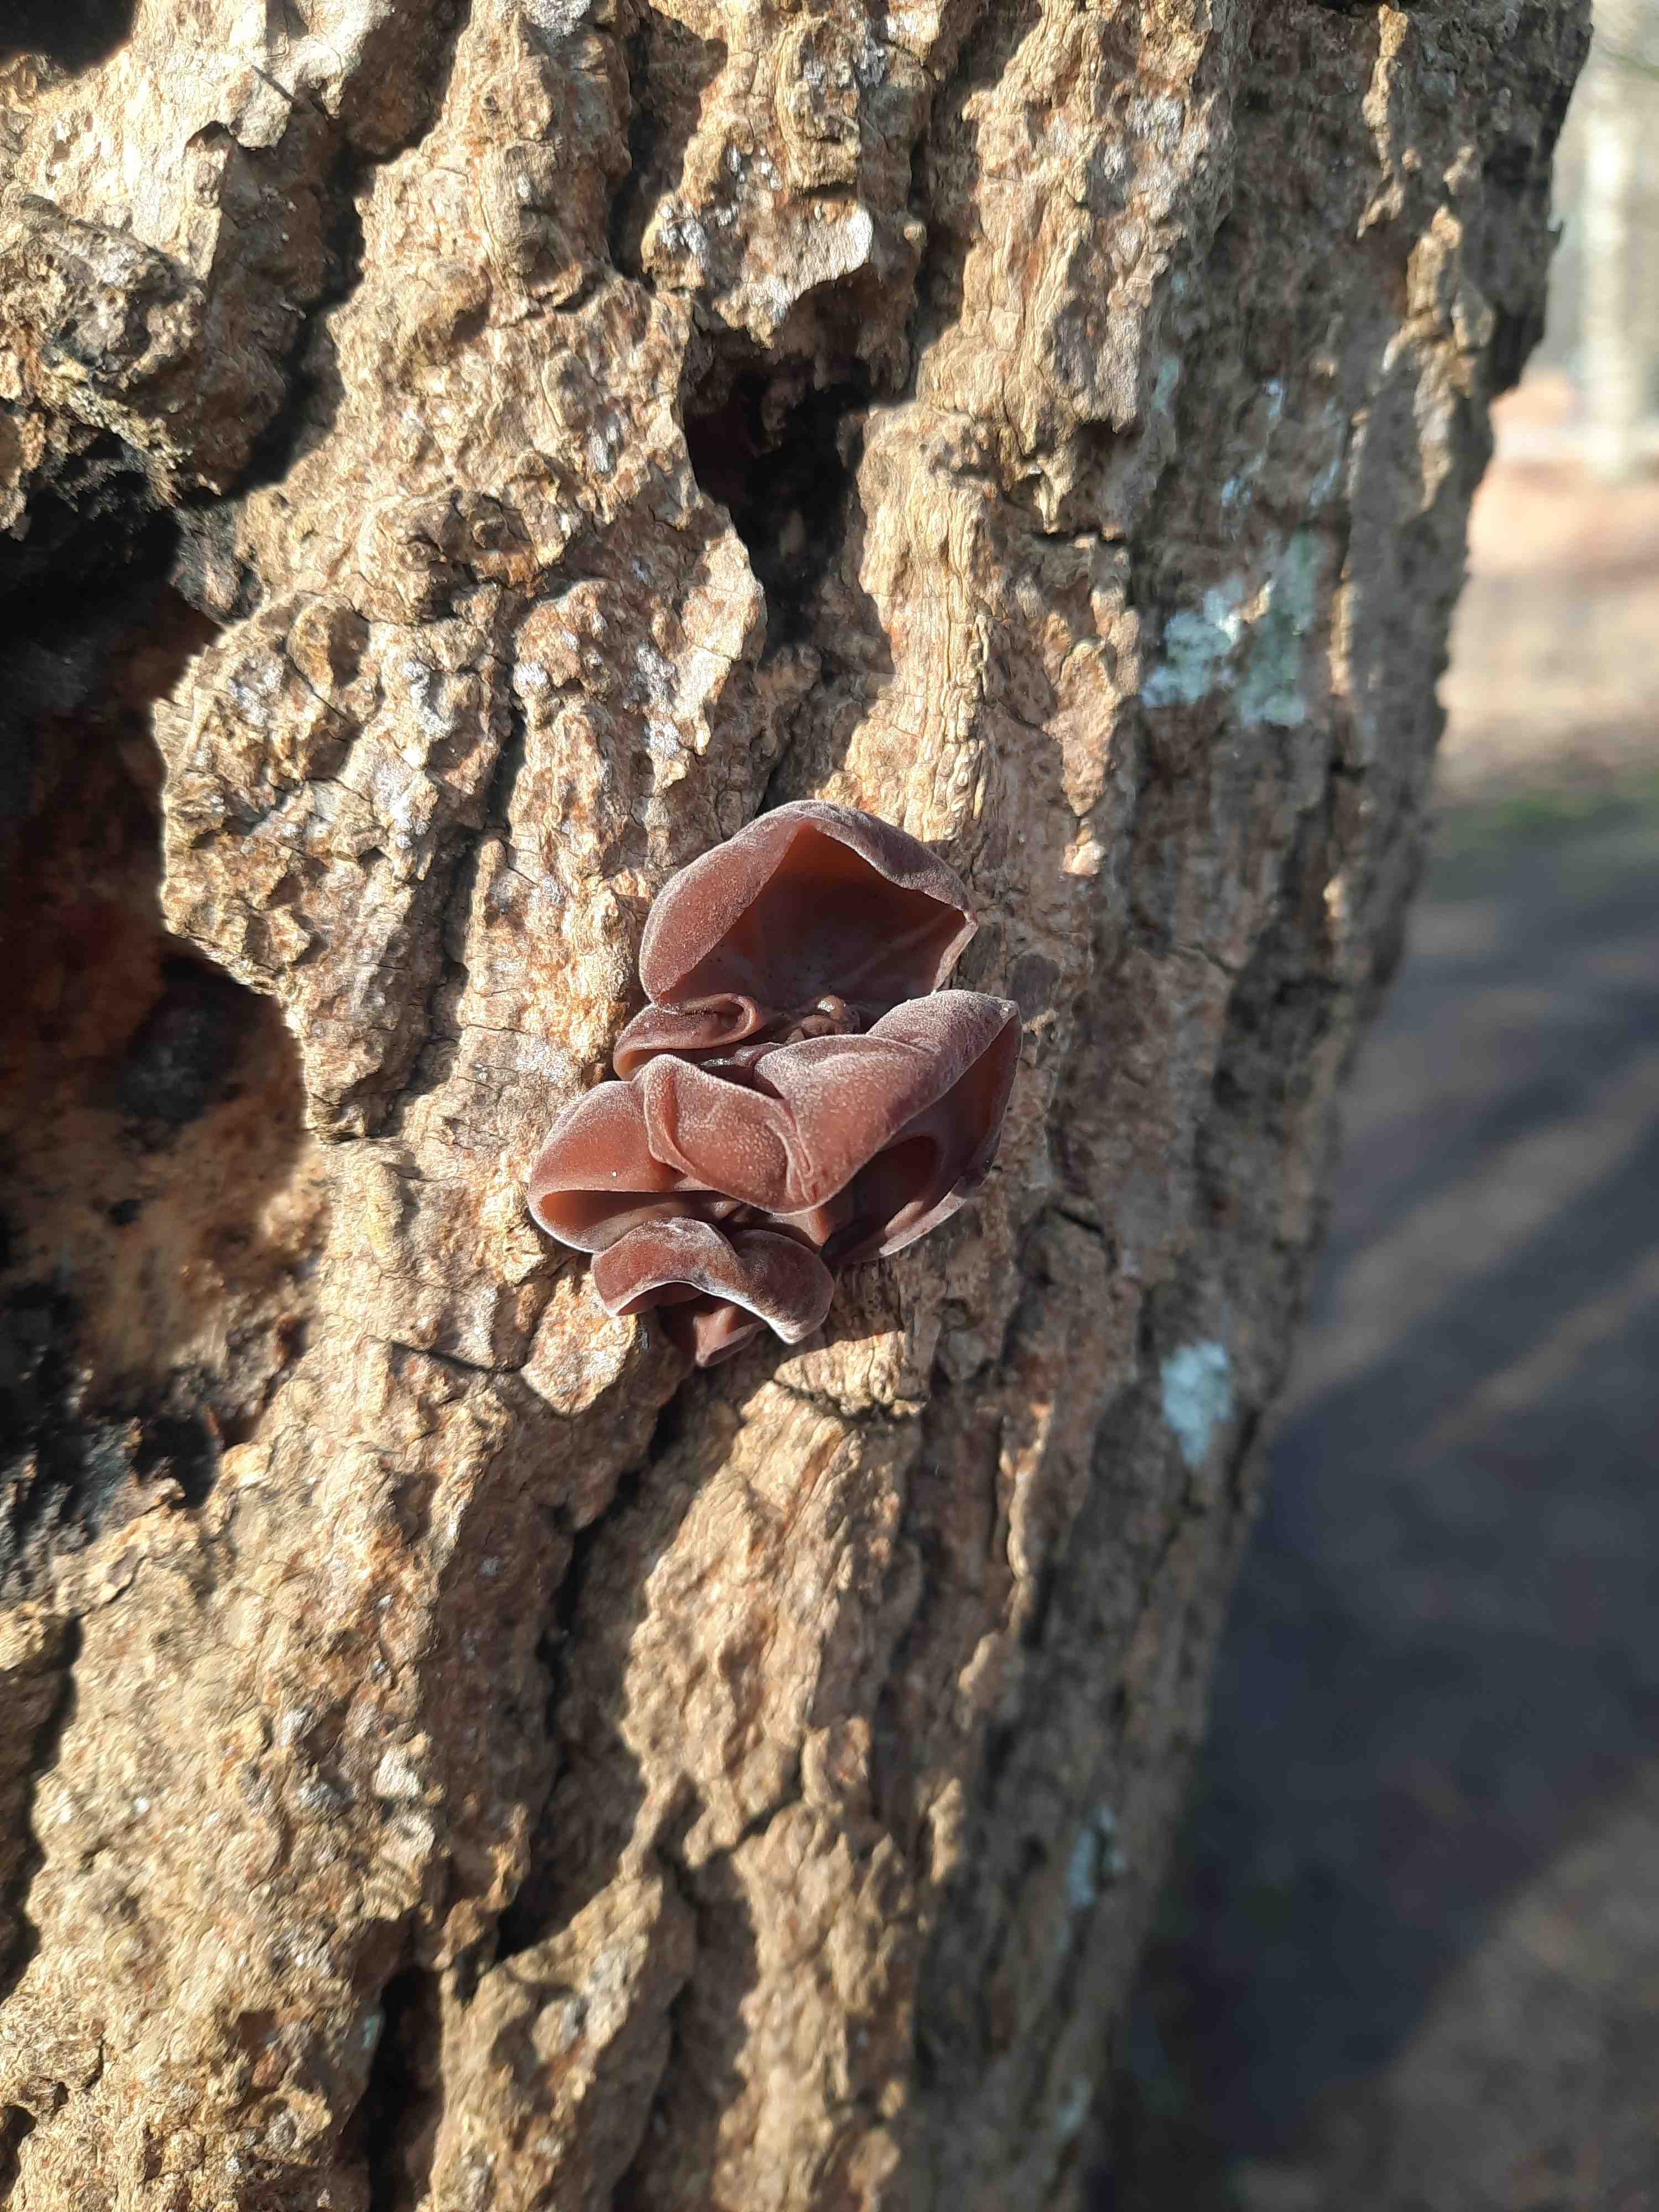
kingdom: Fungi
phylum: Basidiomycota
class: Agaricomycetes
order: Auriculariales
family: Auriculariaceae
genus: Auricularia
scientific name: Auricularia auricula-judae
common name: almindelig judasøre
